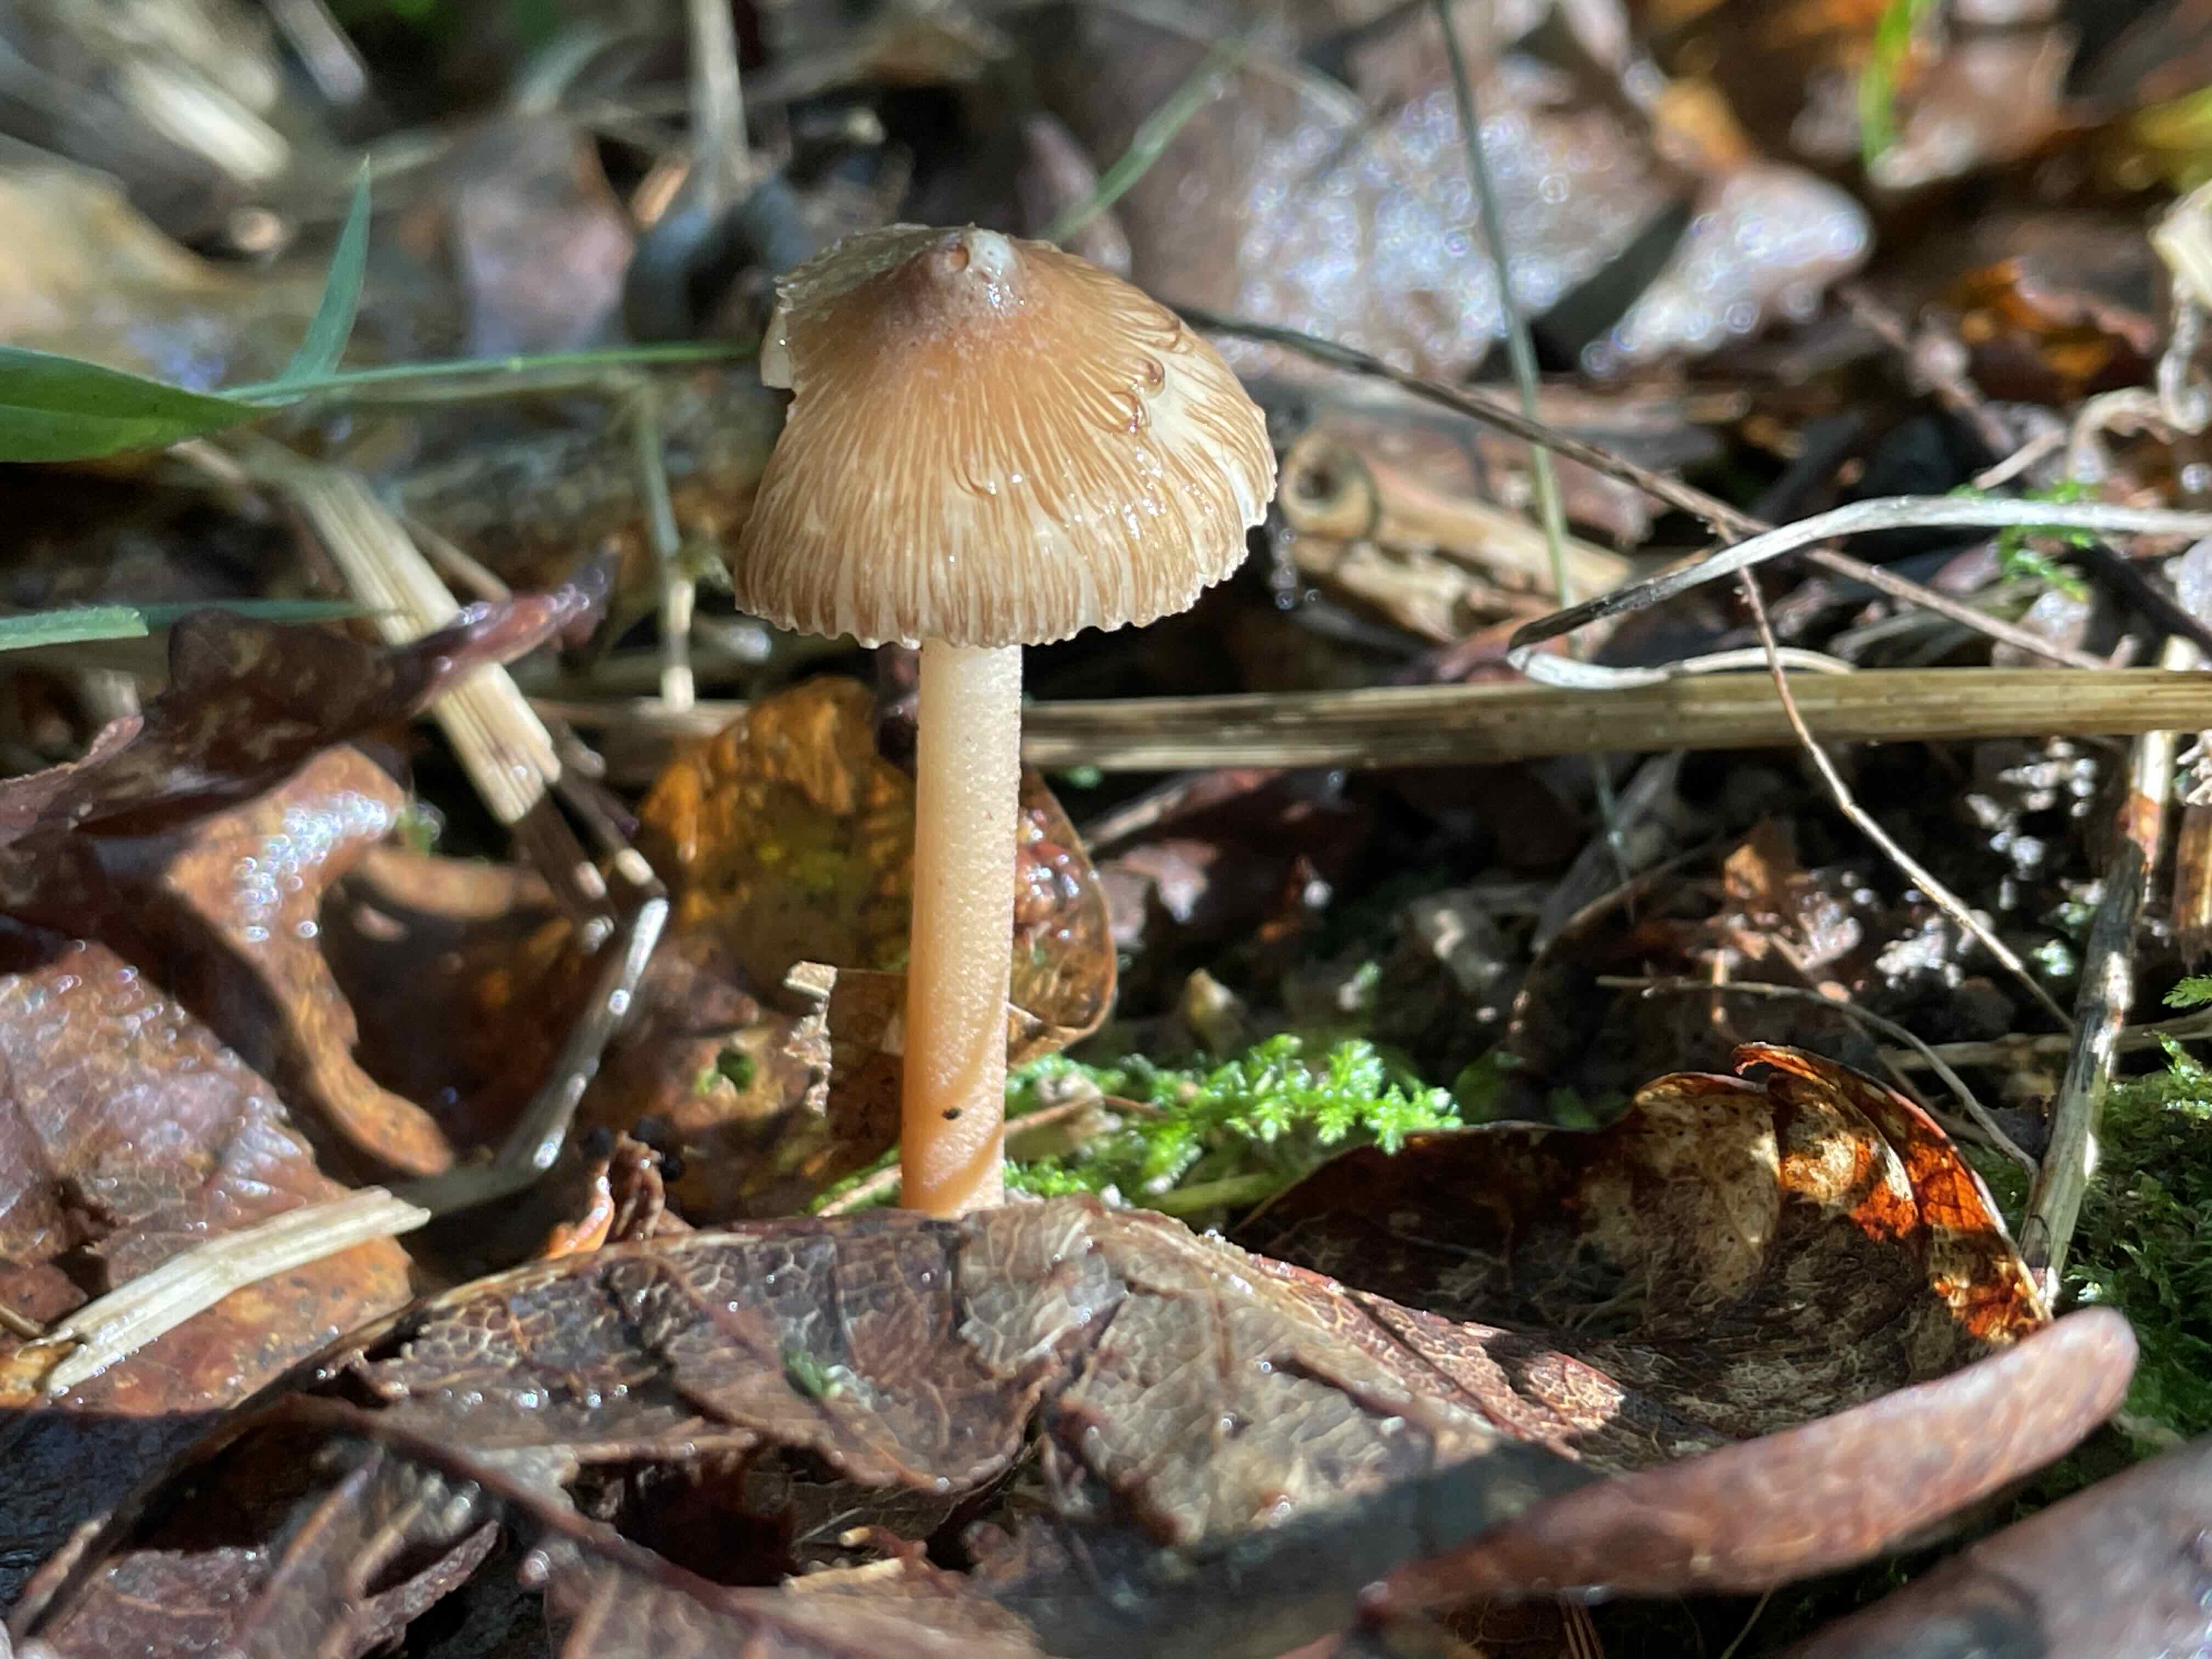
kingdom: Fungi
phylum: Basidiomycota
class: Agaricomycetes
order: Agaricales
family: Inocybaceae
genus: Inocybe
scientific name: Inocybe asterospora
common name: stjernesporet trævlhat
